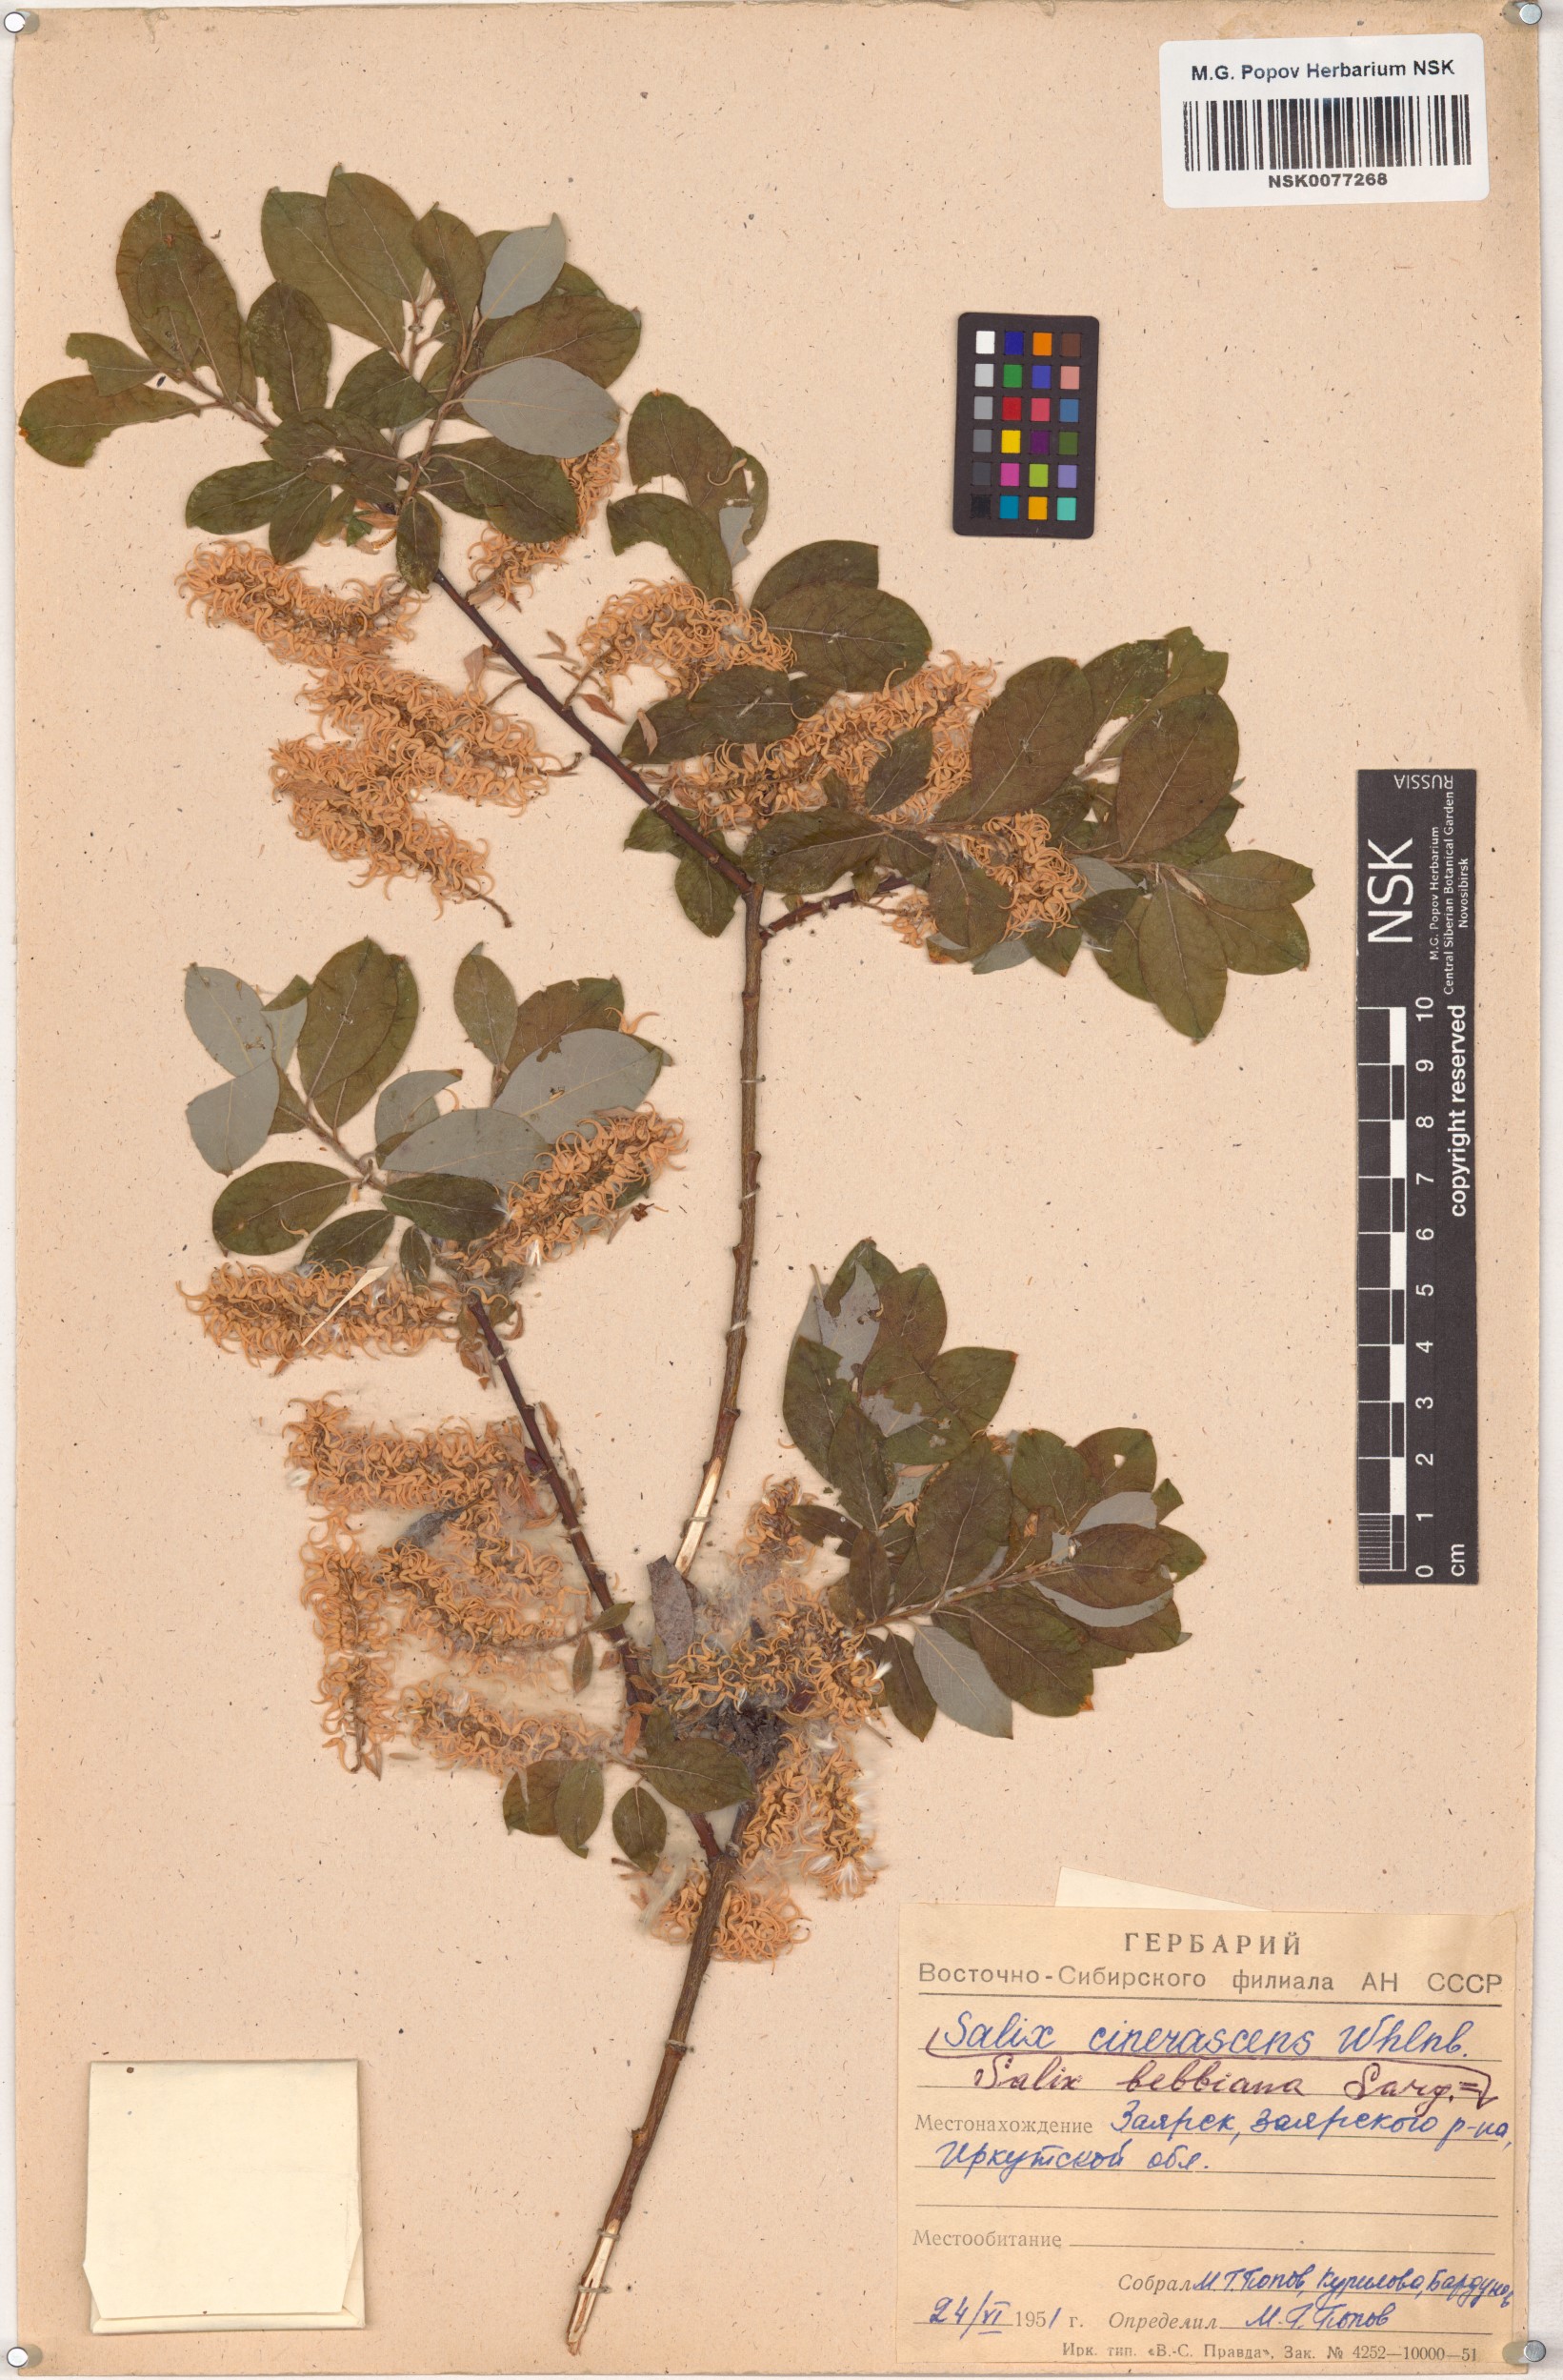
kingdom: Plantae
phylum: Tracheophyta
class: Magnoliopsida
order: Malpighiales
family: Salicaceae
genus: Salix
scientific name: Salix bebbiana
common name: Bebb's willow
